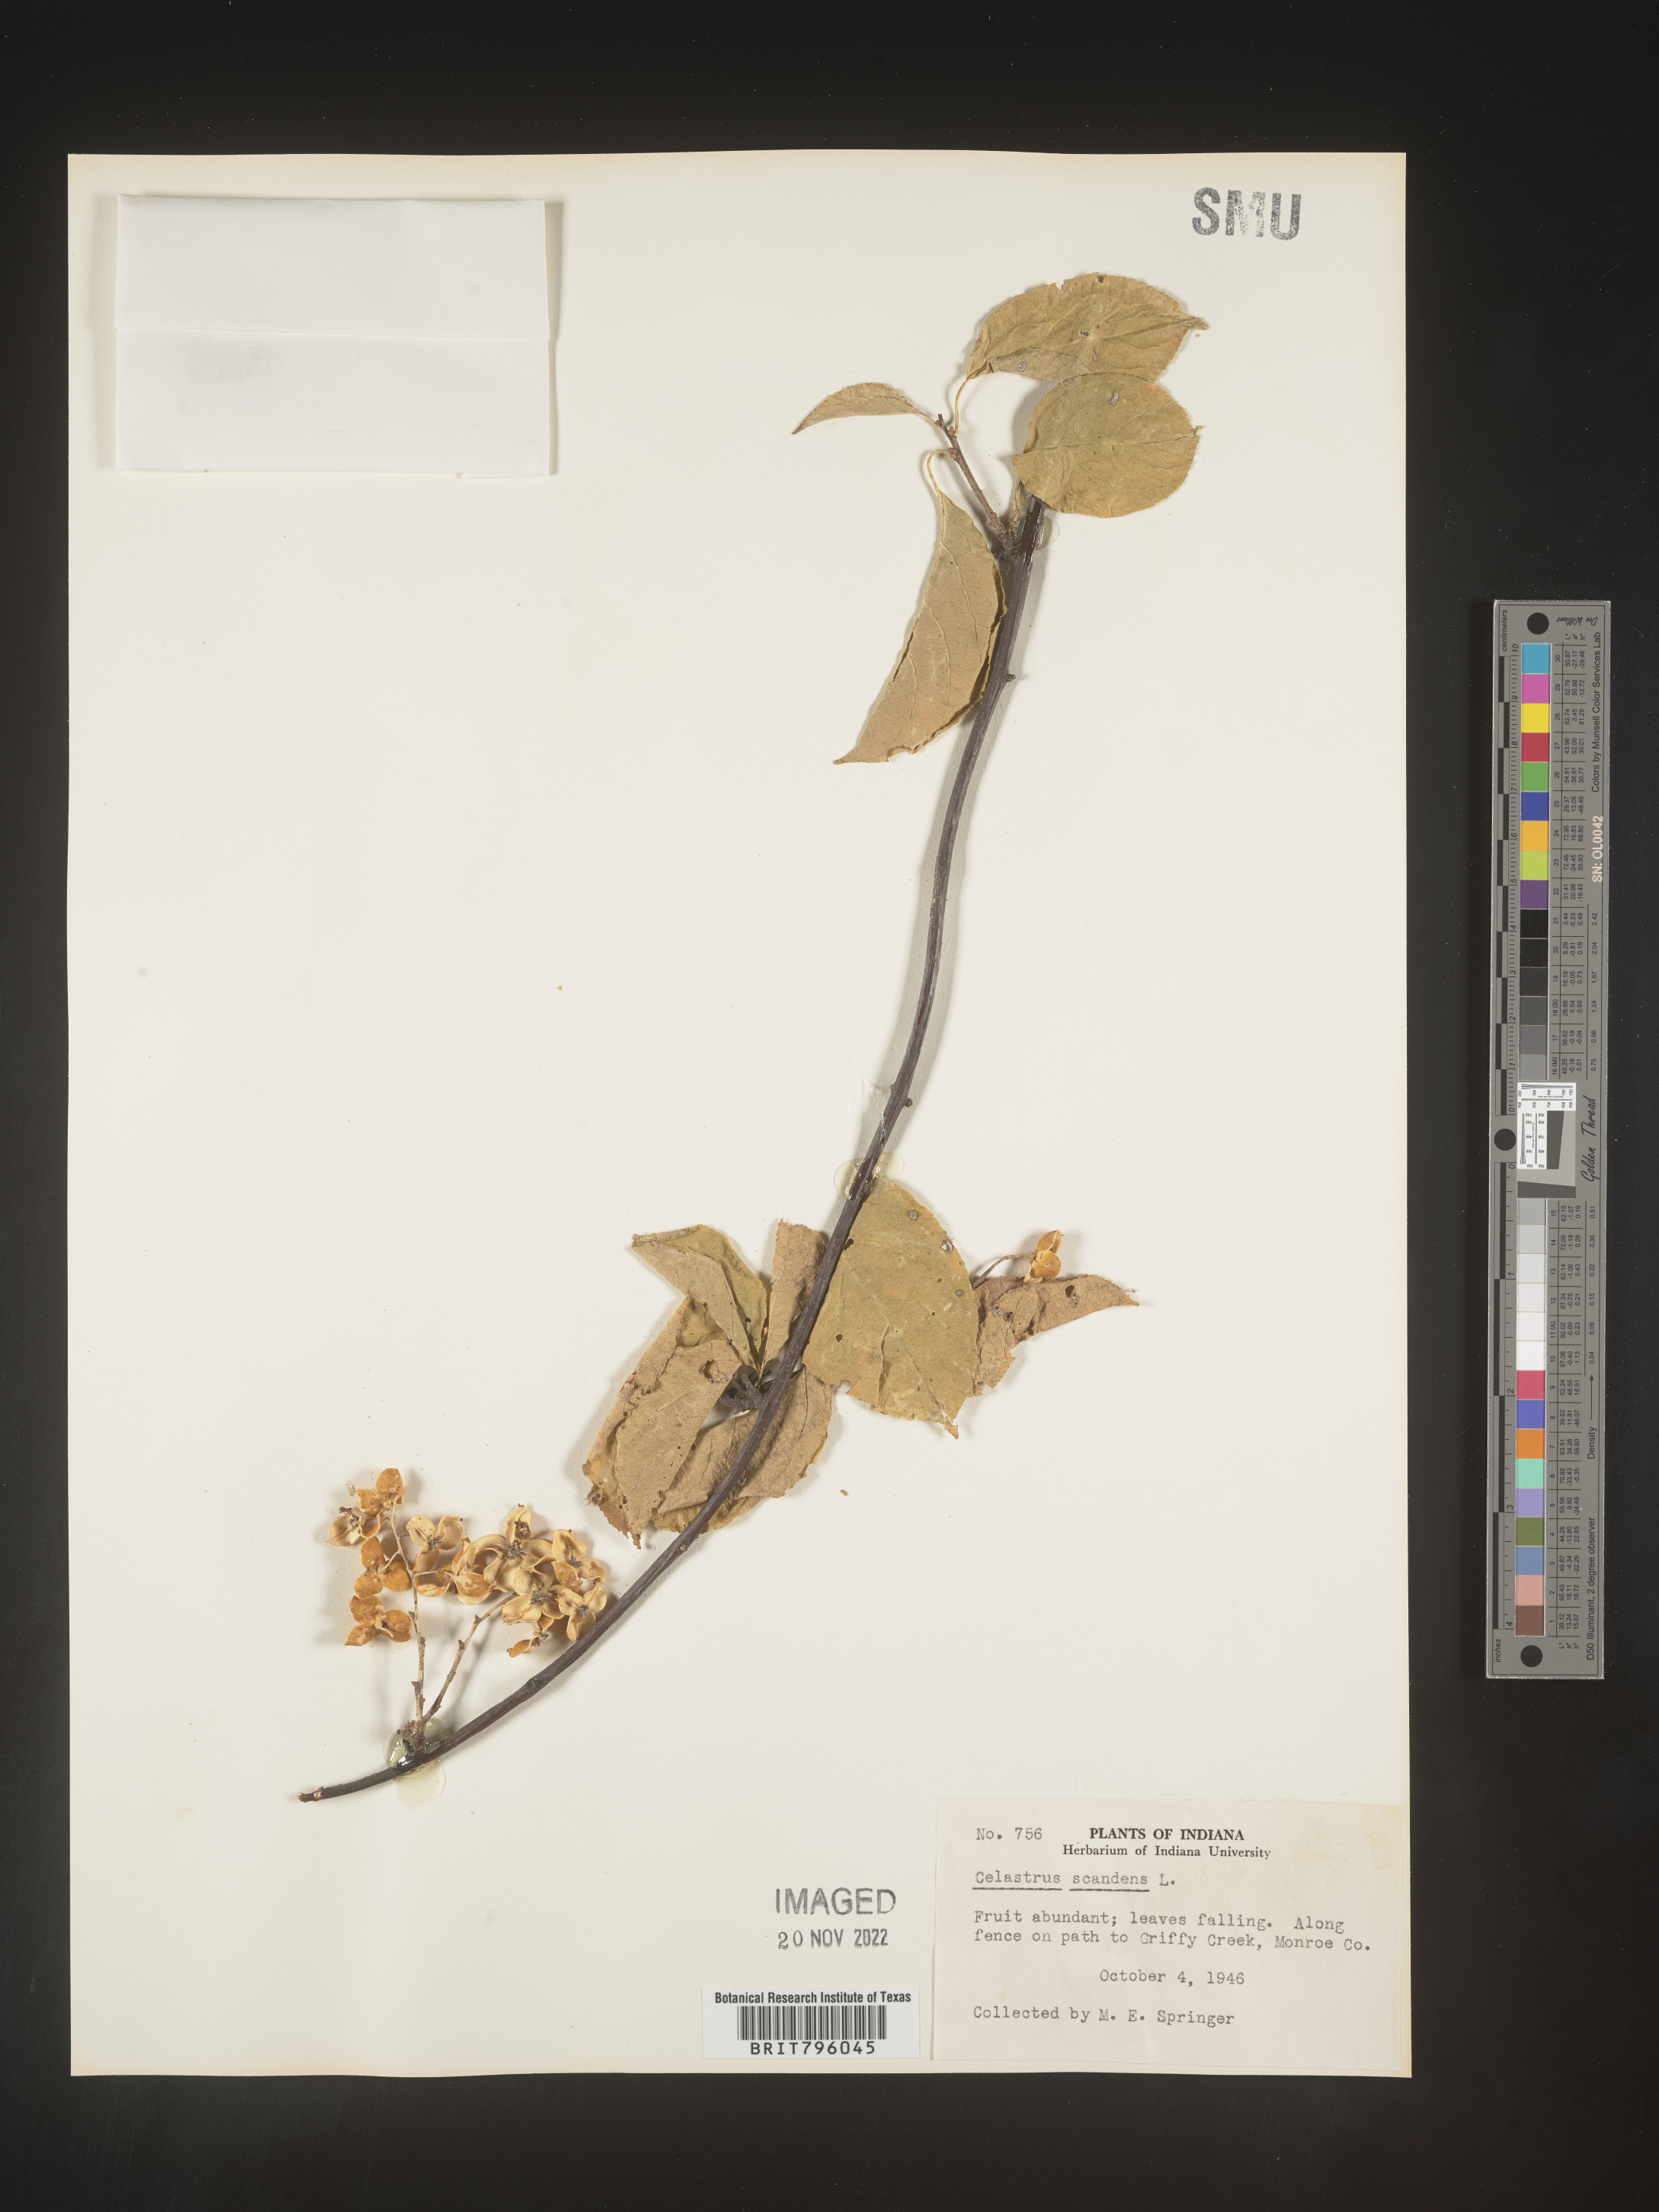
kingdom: Plantae
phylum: Tracheophyta
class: Magnoliopsida
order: Celastrales
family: Celastraceae
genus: Celastrus
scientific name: Celastrus scandens
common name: American bittersweet
